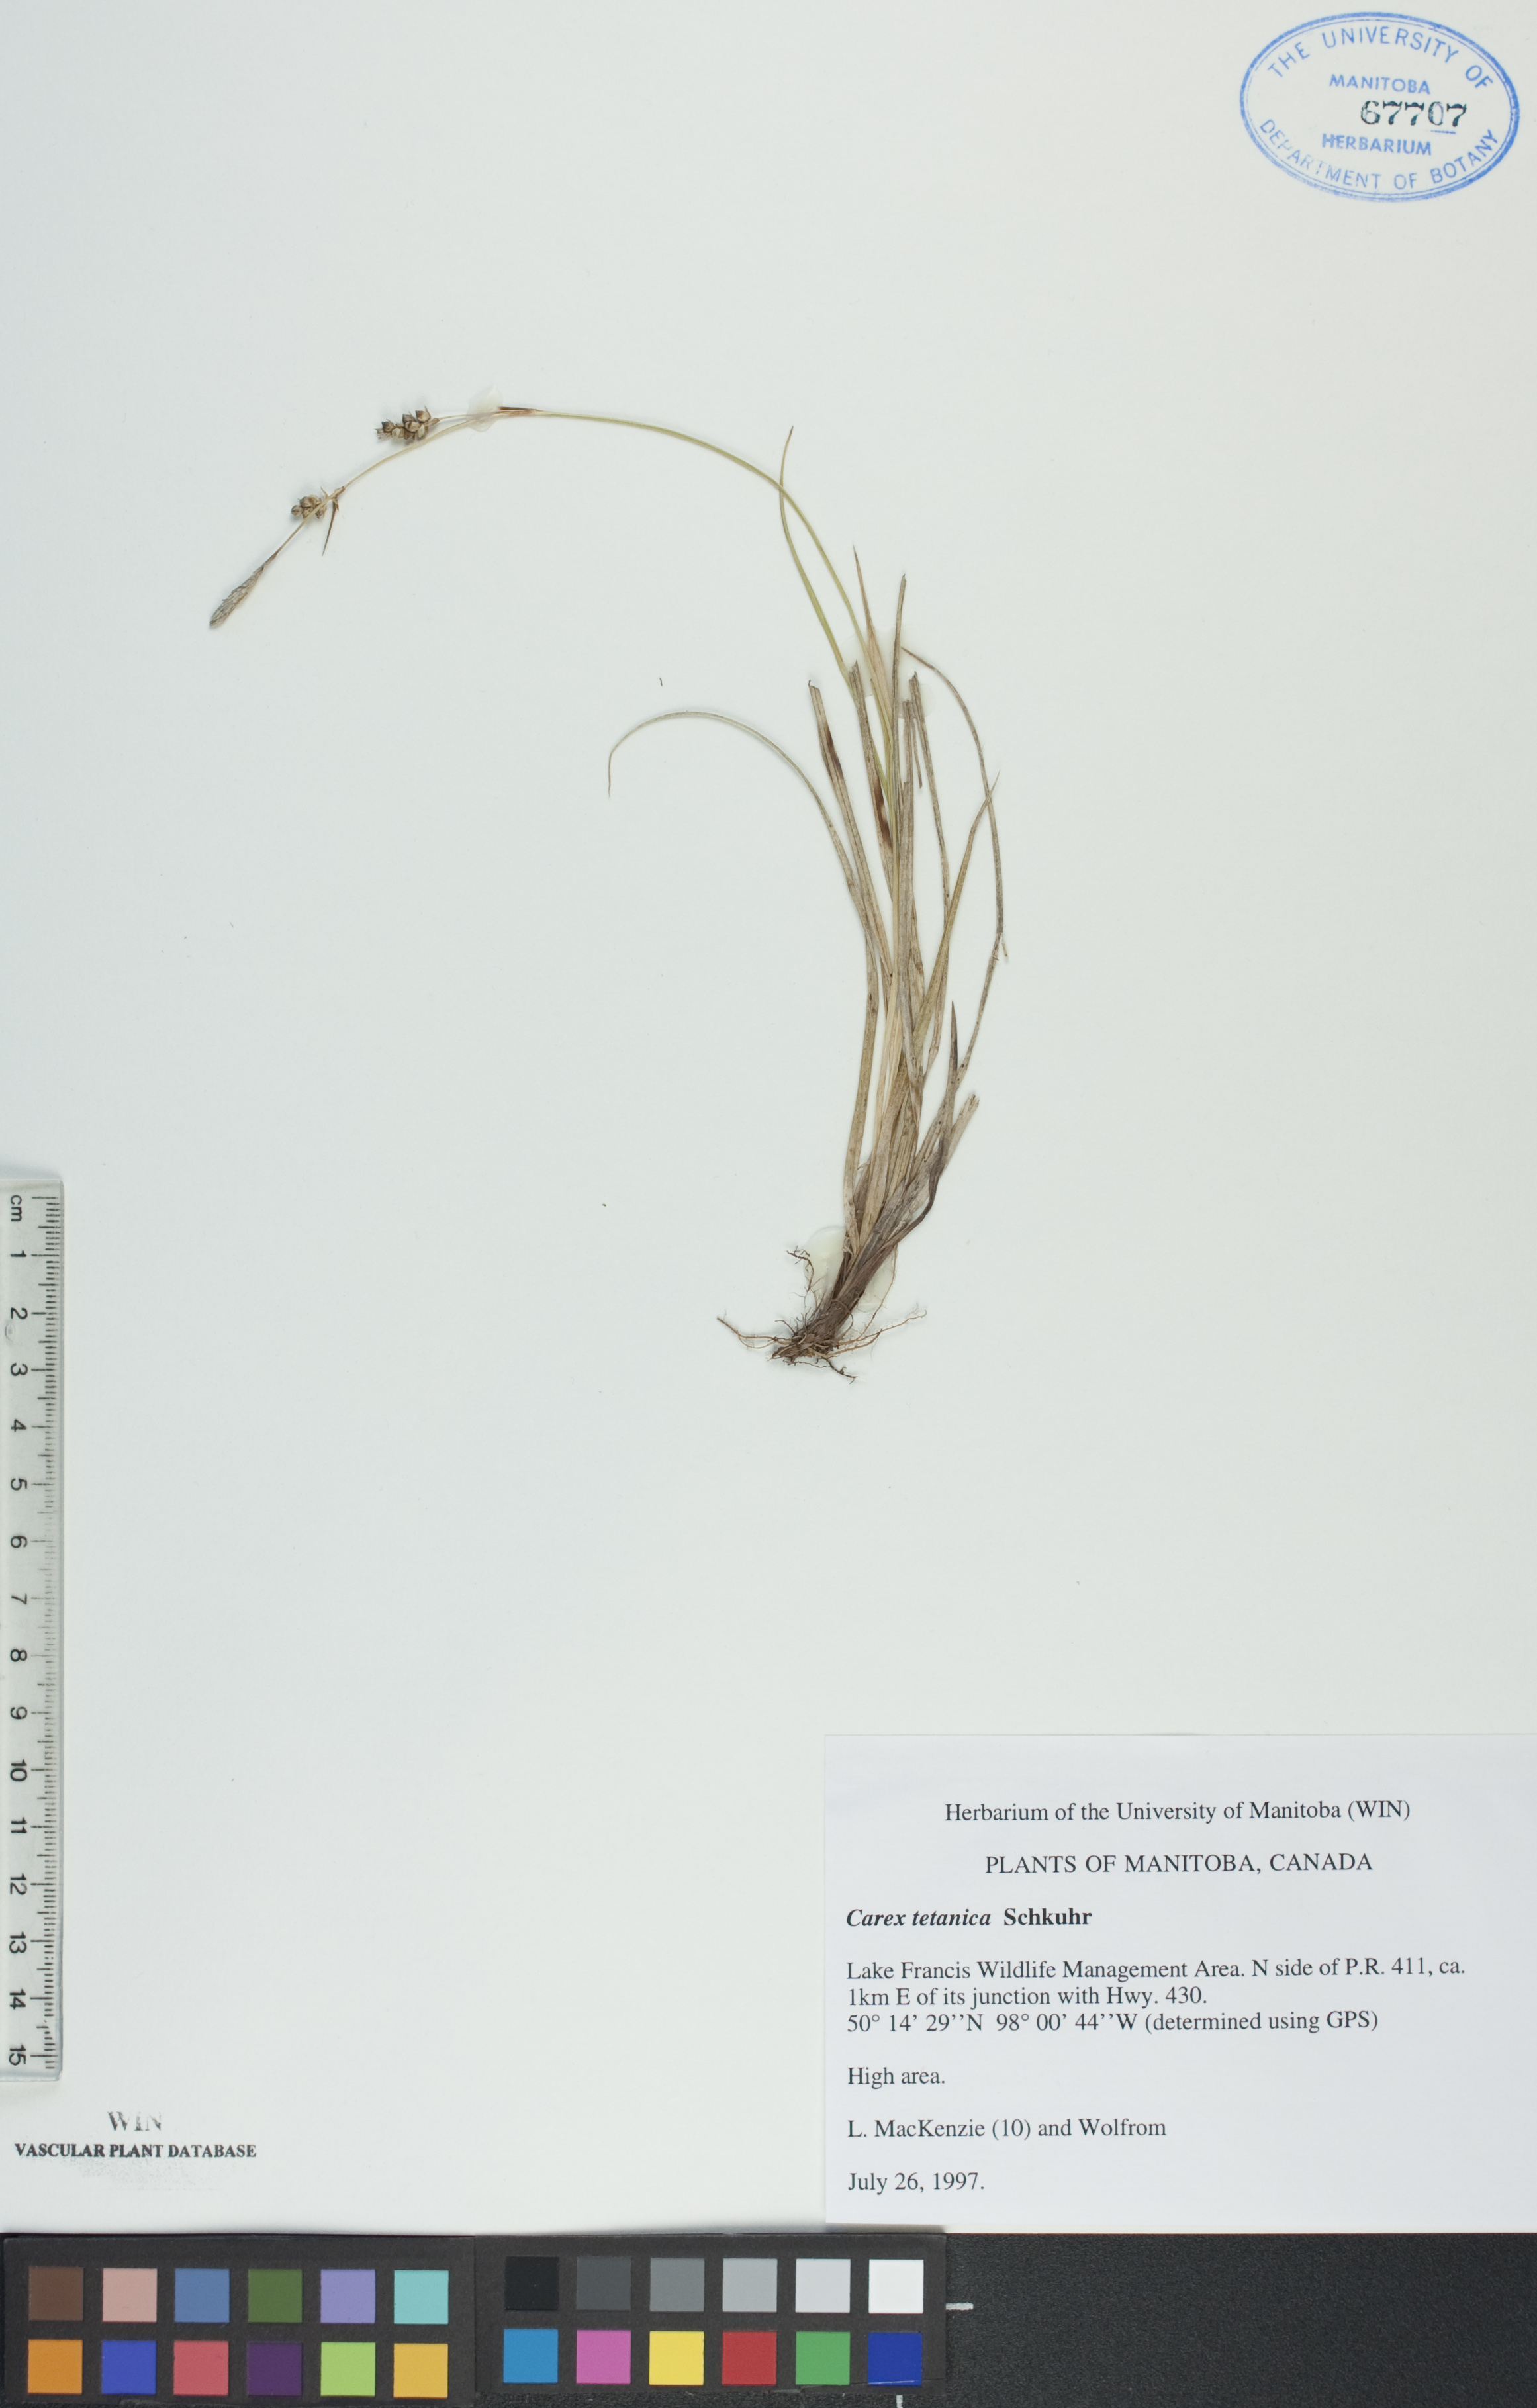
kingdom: Plantae
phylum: Tracheophyta
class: Liliopsida
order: Poales
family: Cyperaceae
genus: Carex
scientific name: Carex tetanica
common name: Rigid sedge
